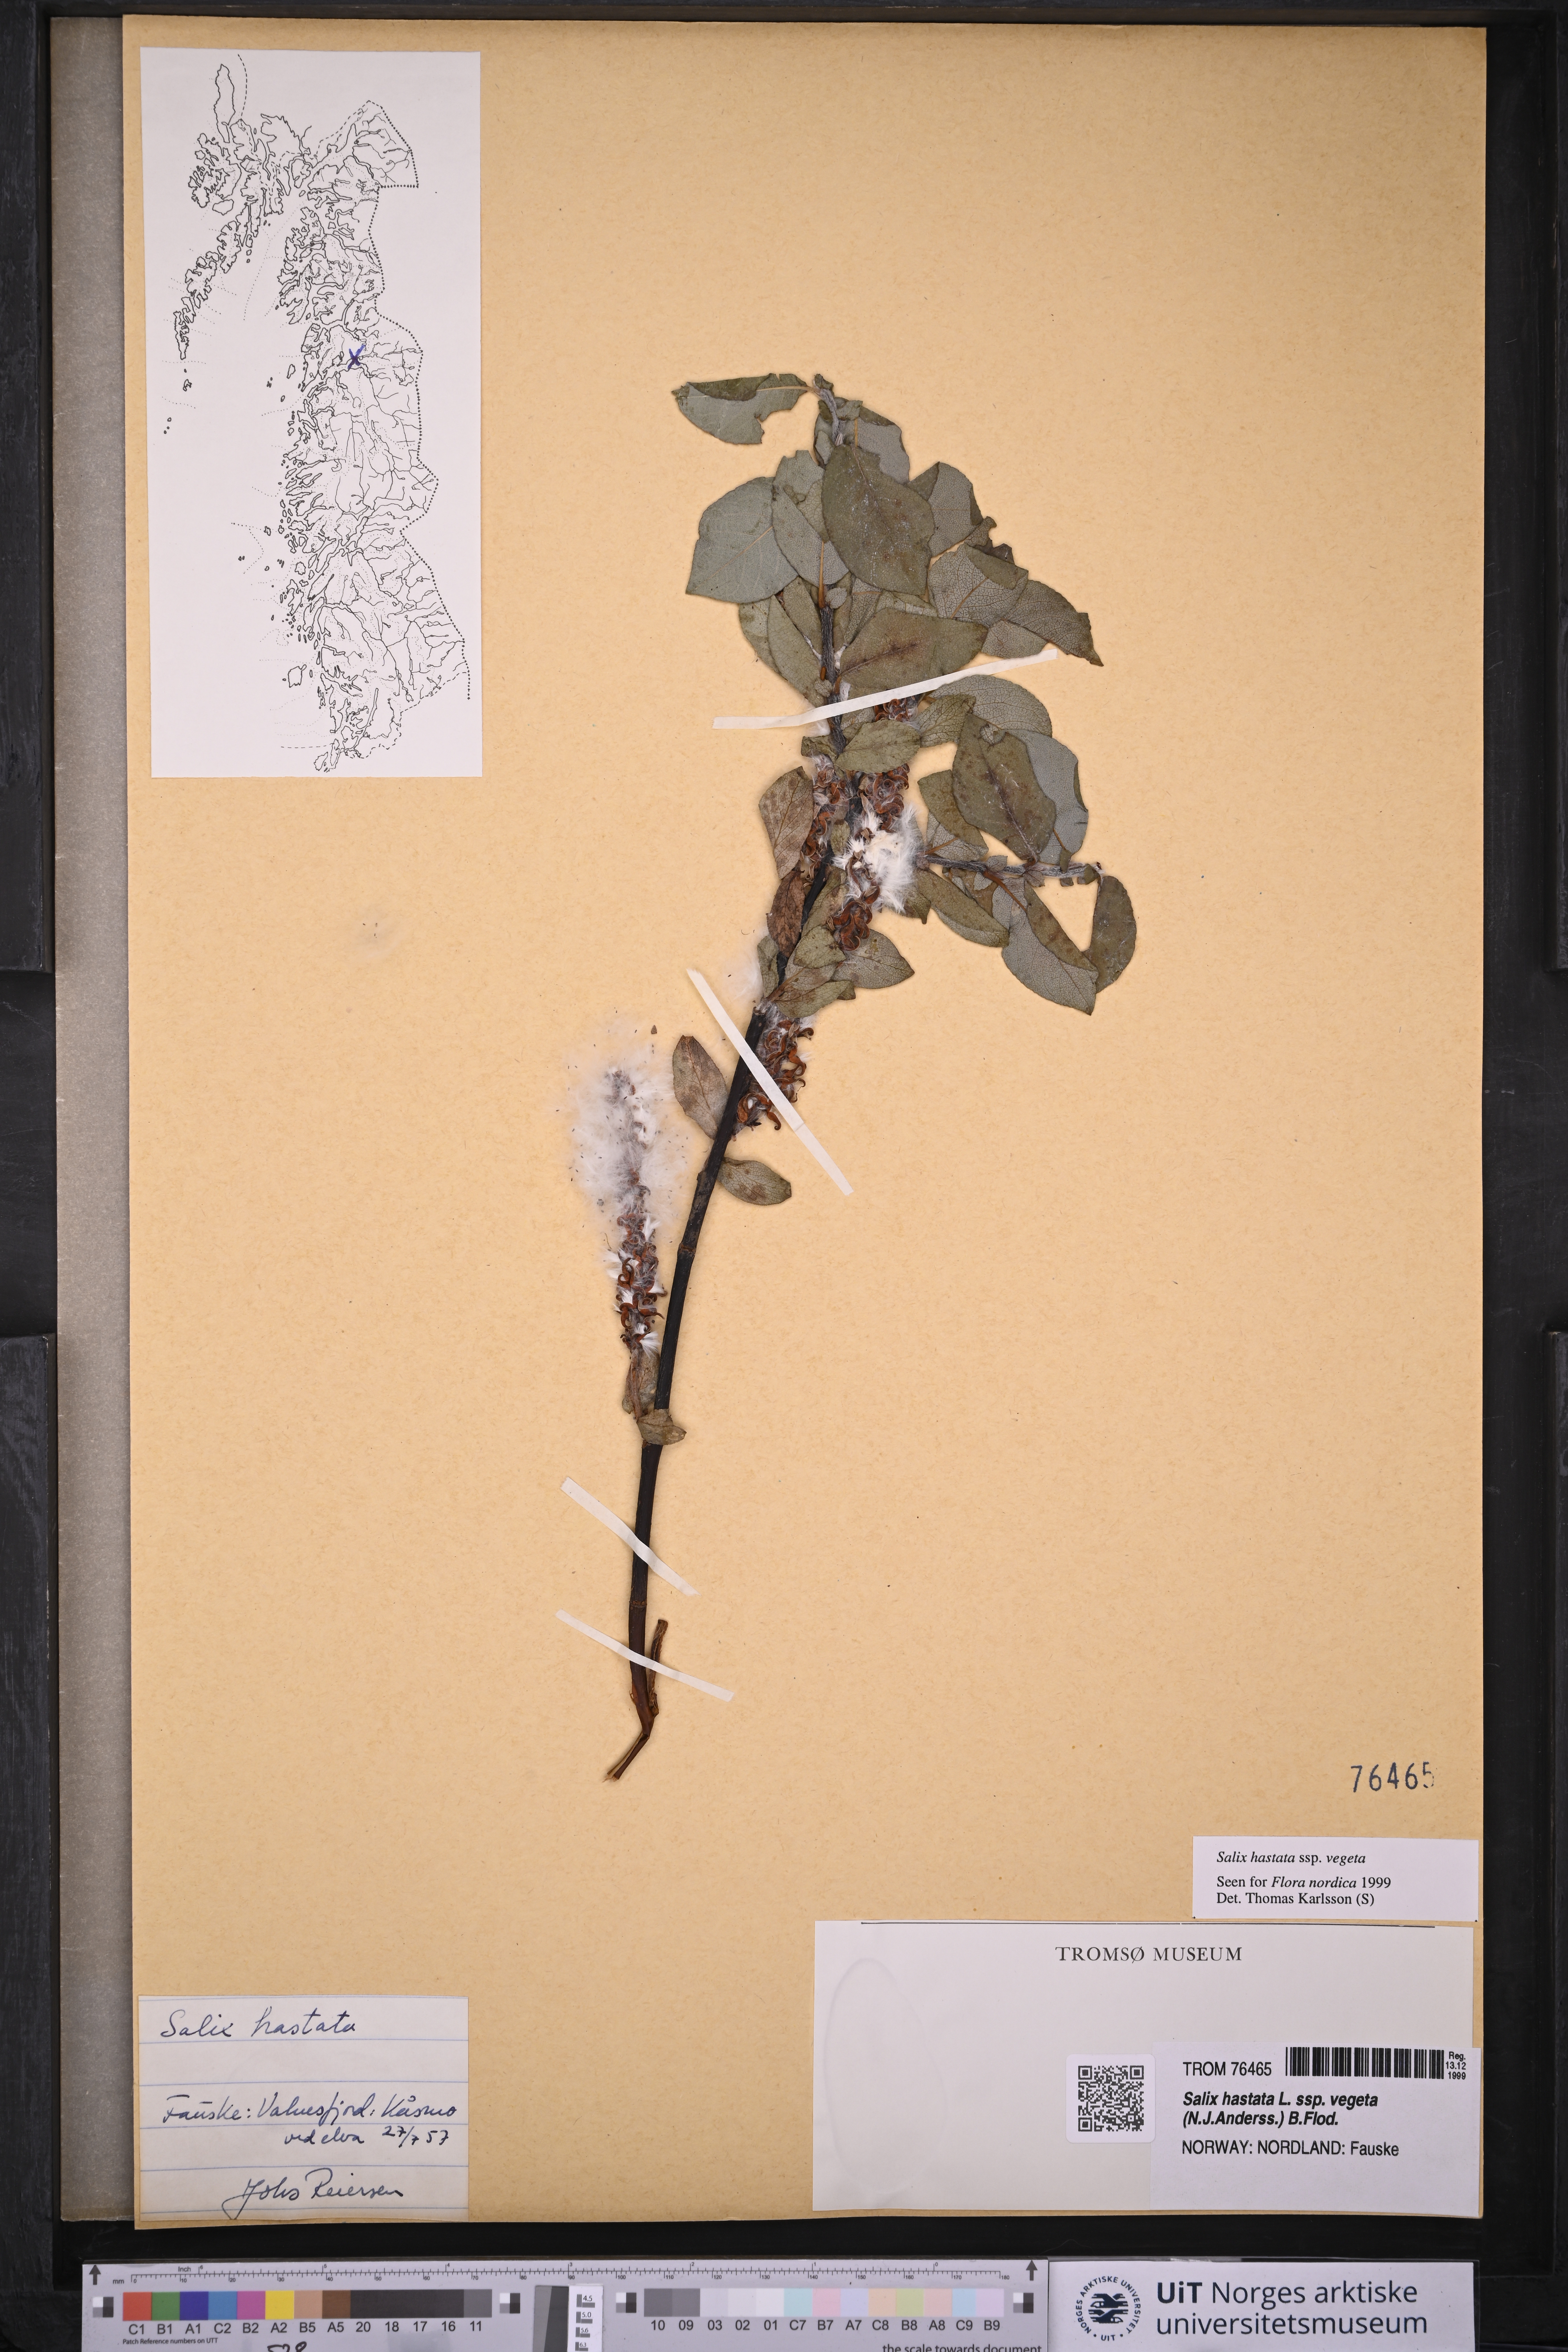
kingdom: Plantae
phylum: Tracheophyta
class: Magnoliopsida
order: Malpighiales
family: Salicaceae
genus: Salix
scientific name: Salix hastata
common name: Halberd willow
